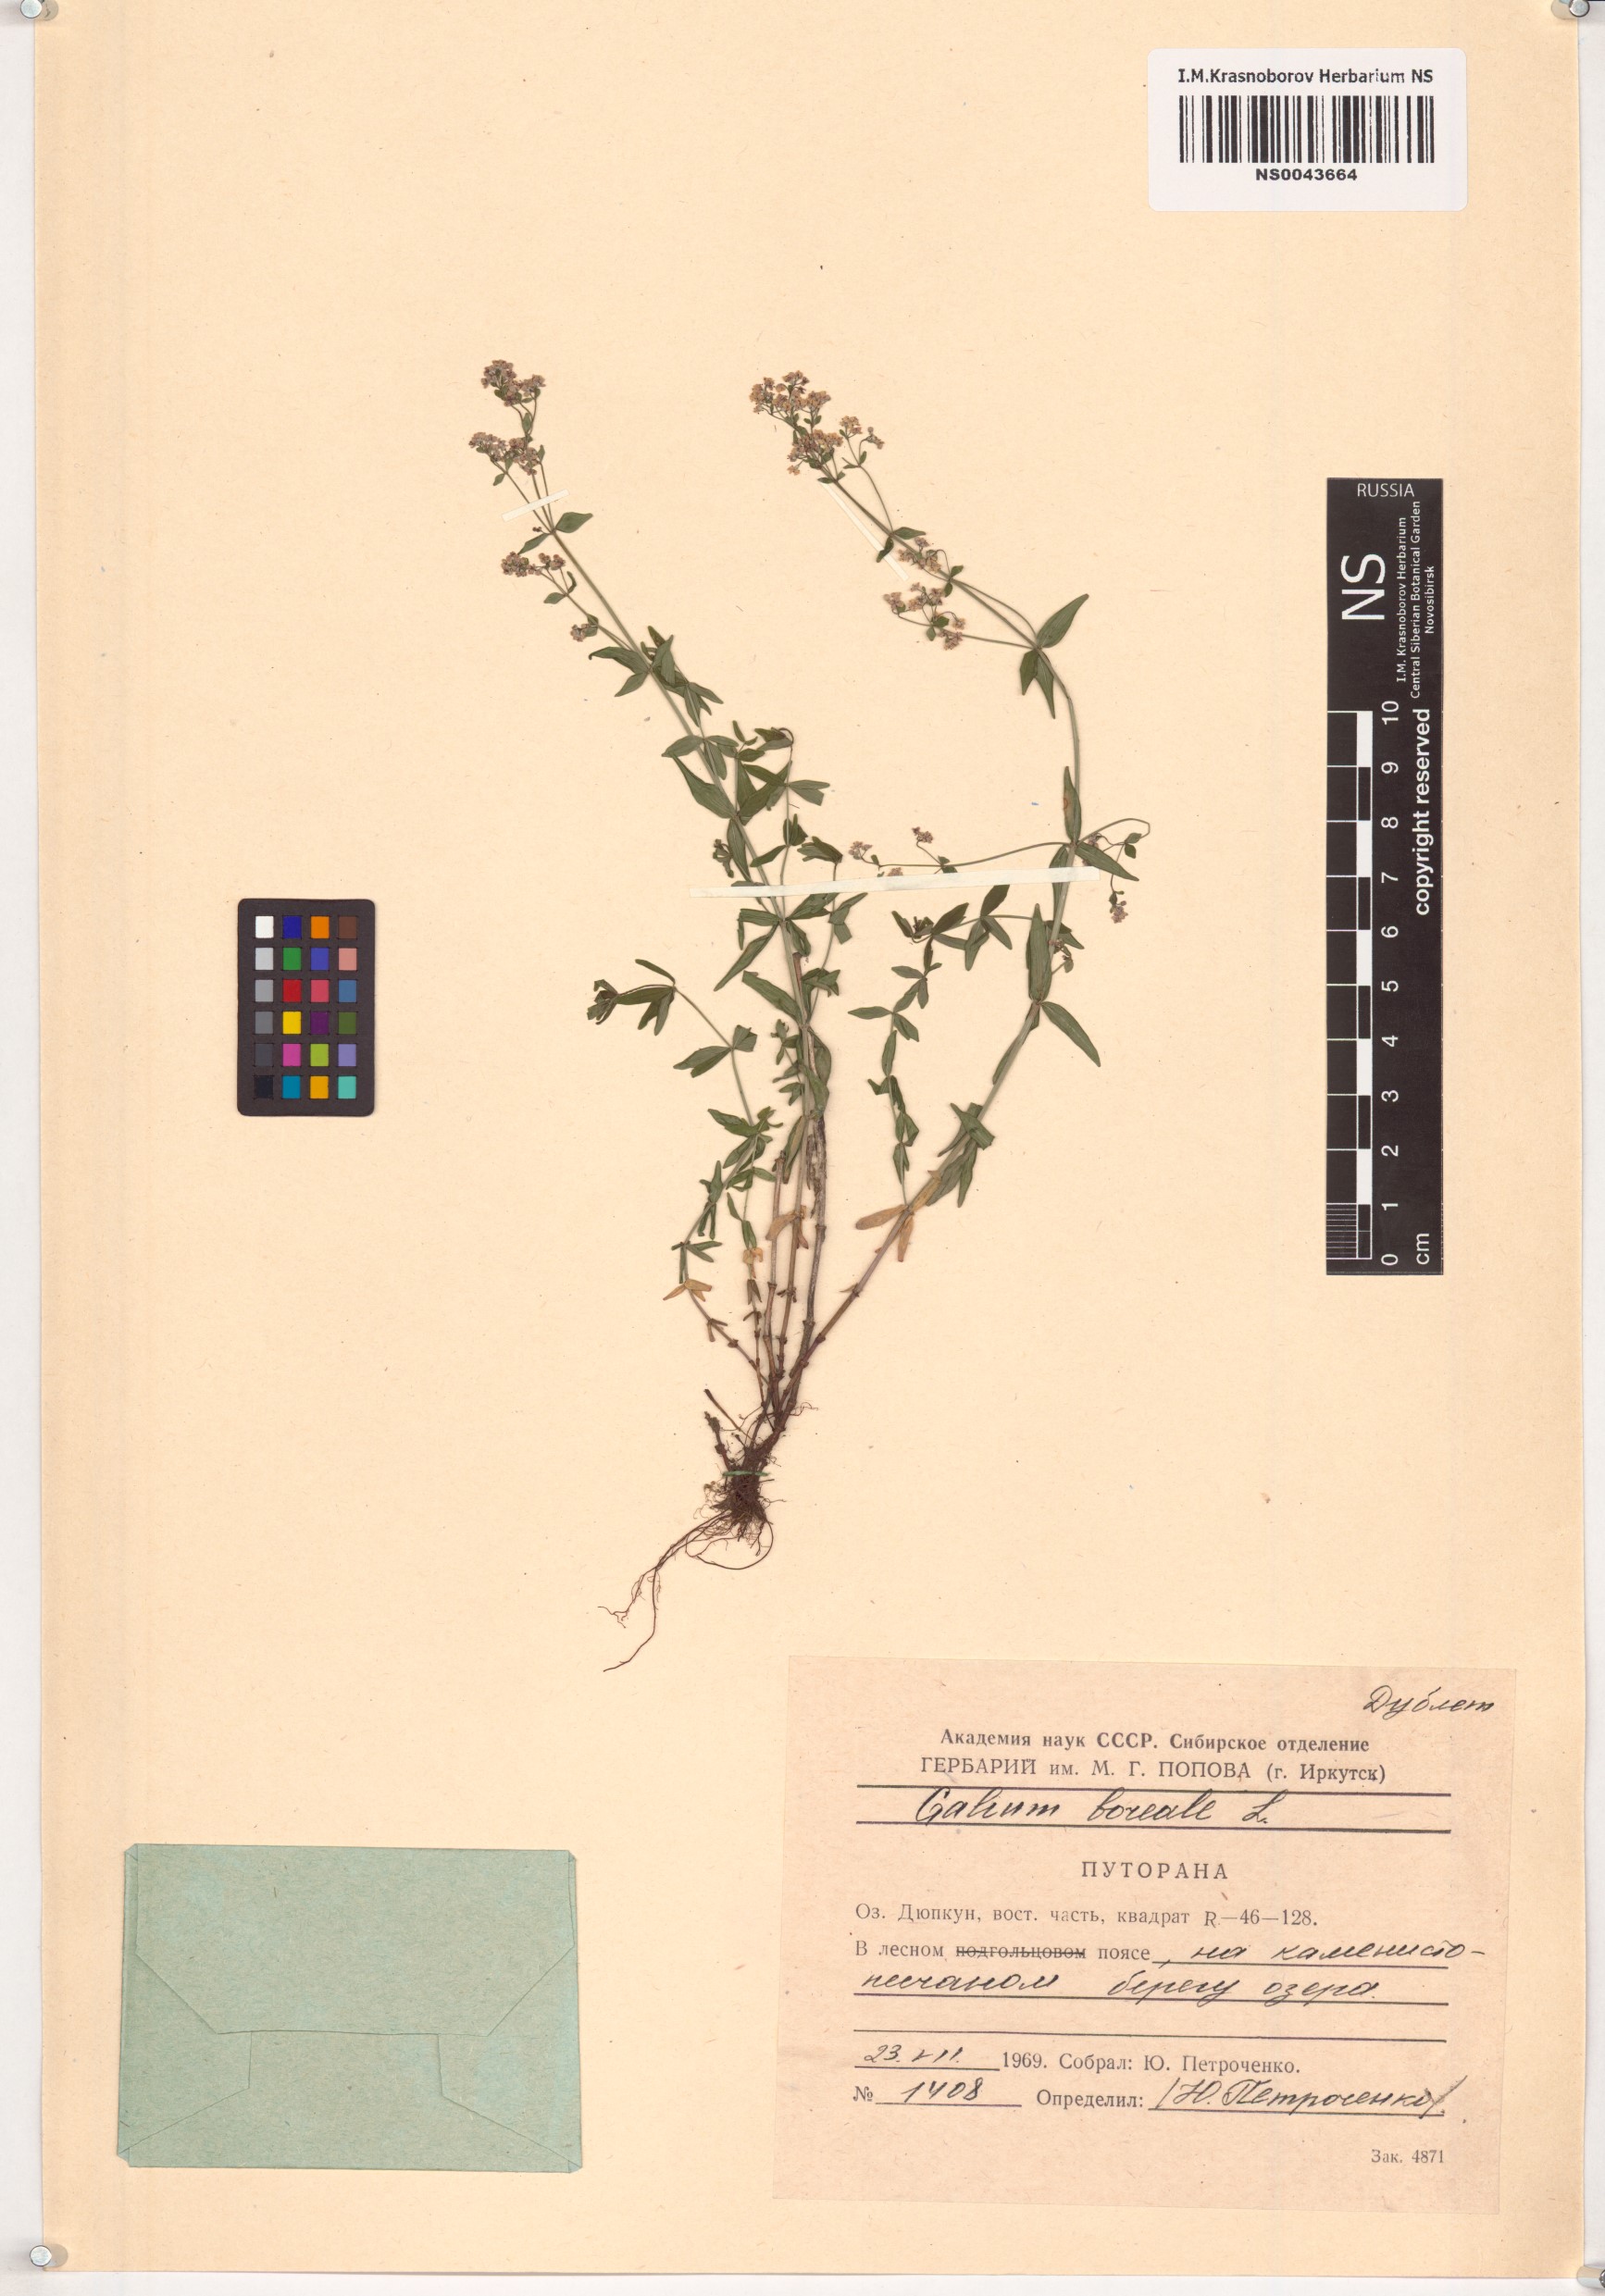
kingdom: Plantae
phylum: Tracheophyta
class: Magnoliopsida
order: Gentianales
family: Rubiaceae
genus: Galium
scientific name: Galium boreale
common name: Northern bedstraw
